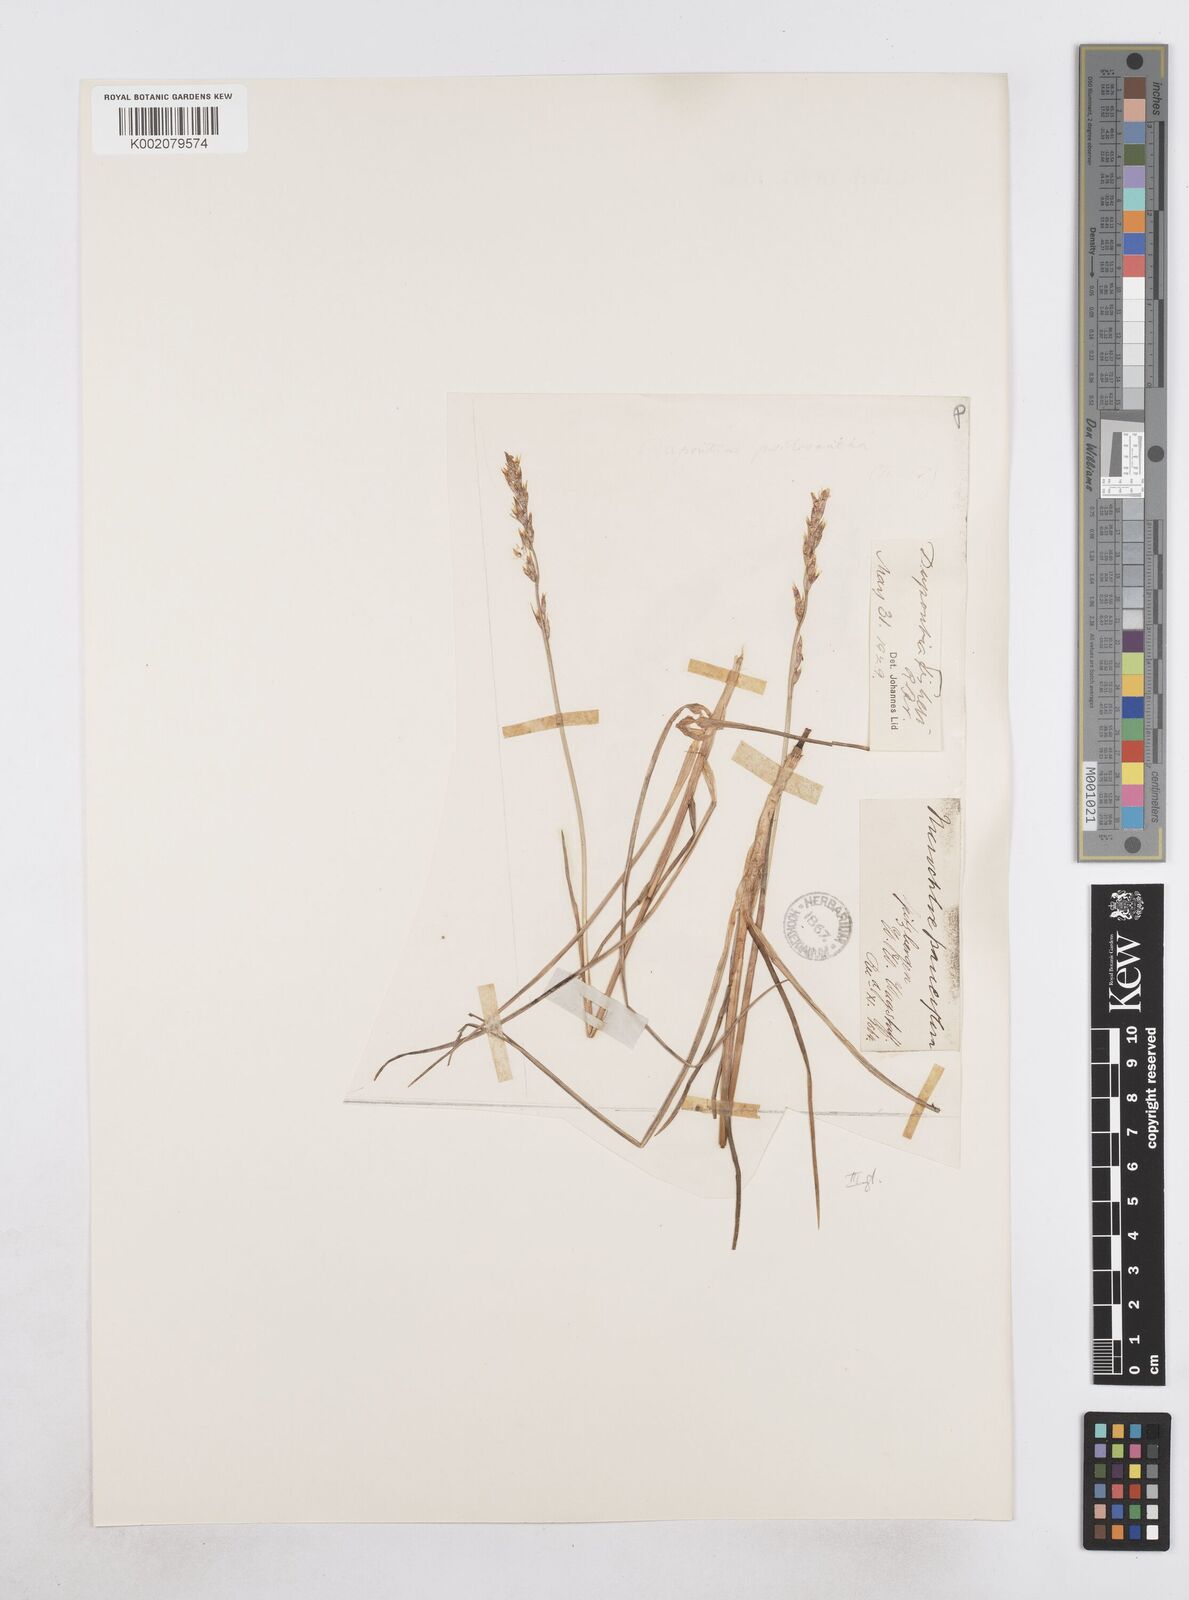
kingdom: Plantae
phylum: Tracheophyta
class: Liliopsida
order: Poales
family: Poaceae
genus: Dupontia
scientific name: Dupontia fisheri
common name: Tundra grass
